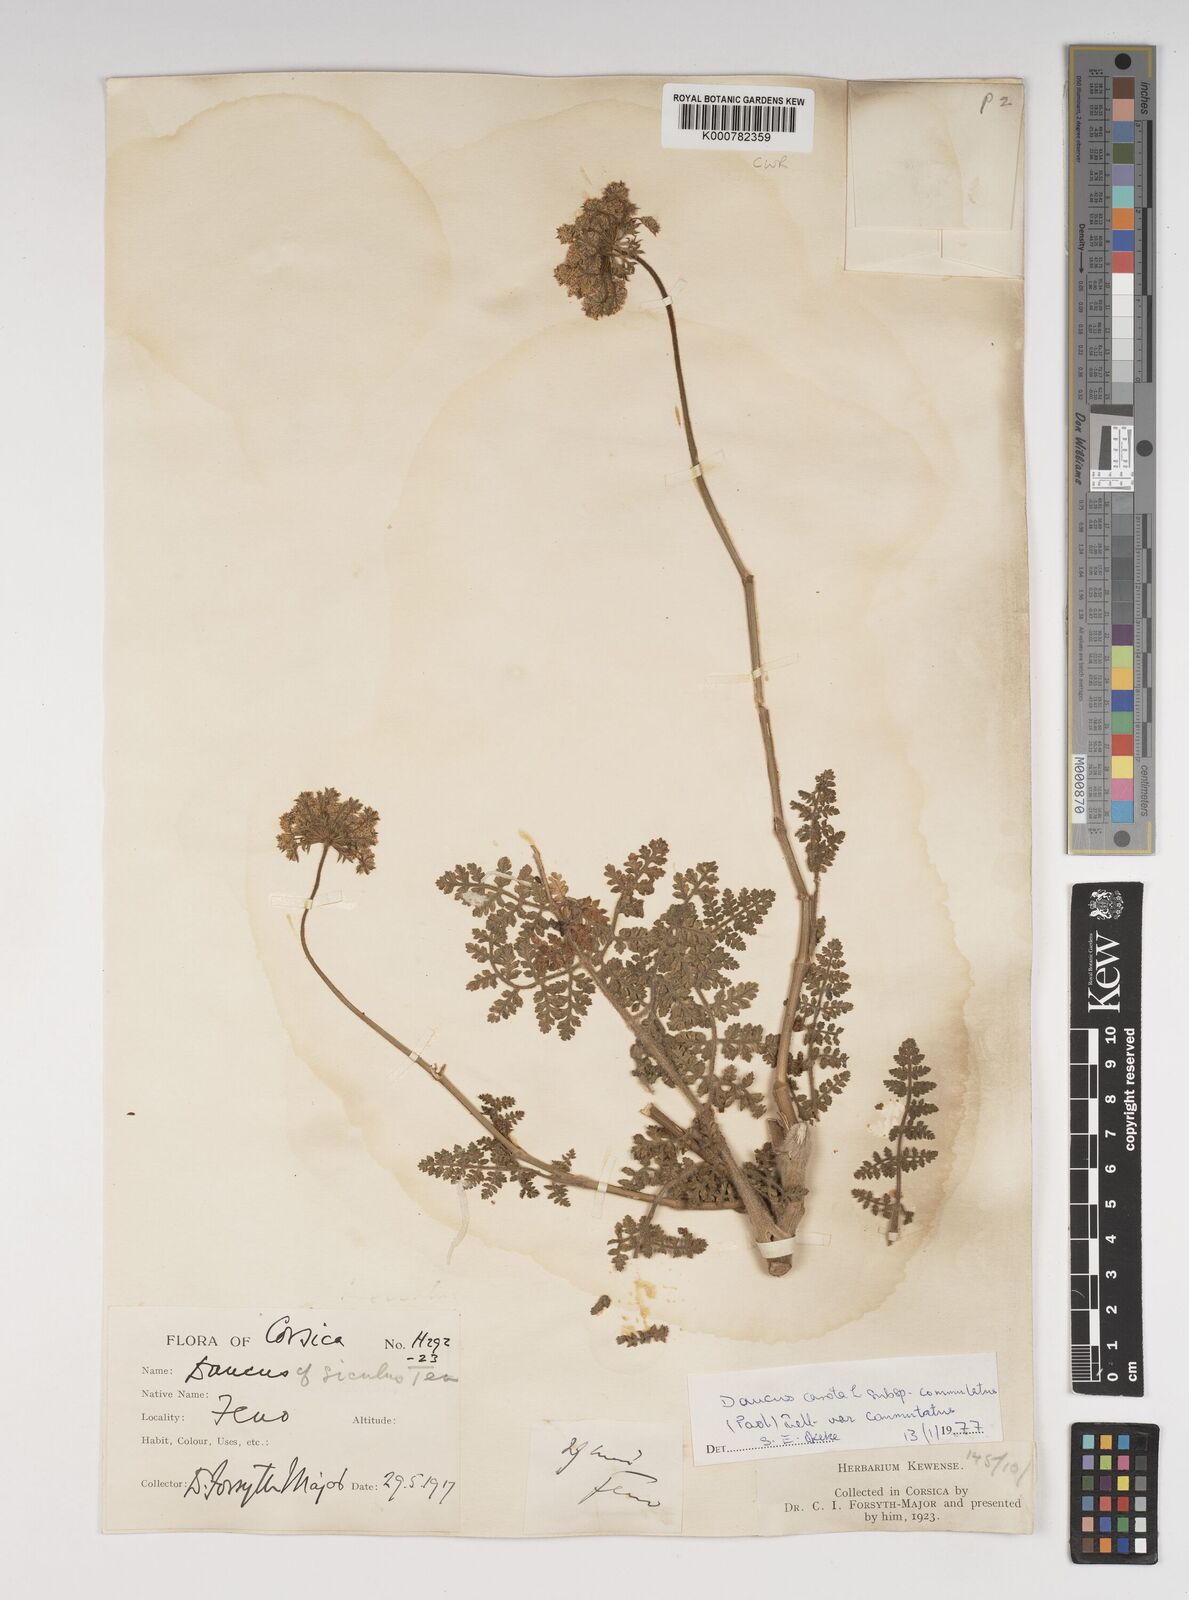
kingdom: Plantae
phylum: Tracheophyta
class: Magnoliopsida
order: Apiales
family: Apiaceae
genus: Daucus
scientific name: Daucus carota
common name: Wild carrot
